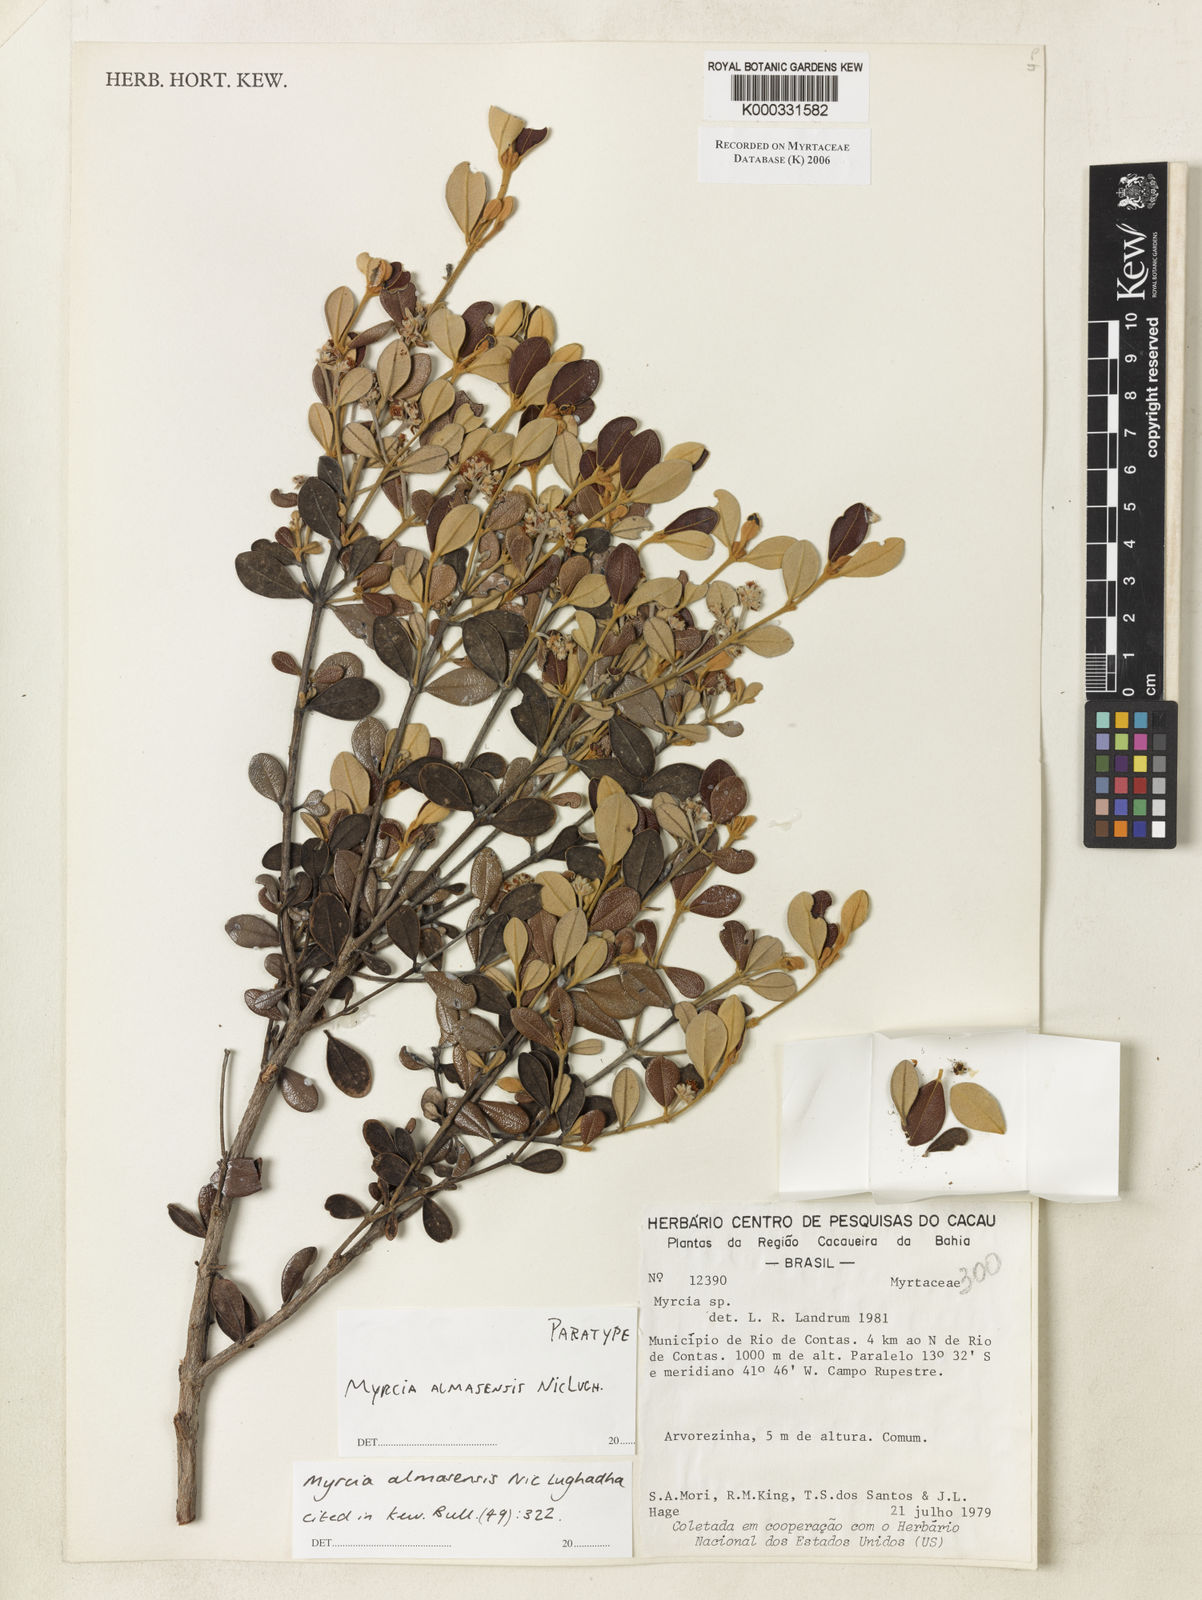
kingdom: Plantae
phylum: Tracheophyta
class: Magnoliopsida
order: Myrtales
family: Myrtaceae
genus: Myrcia
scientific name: Myrcia almasensis
